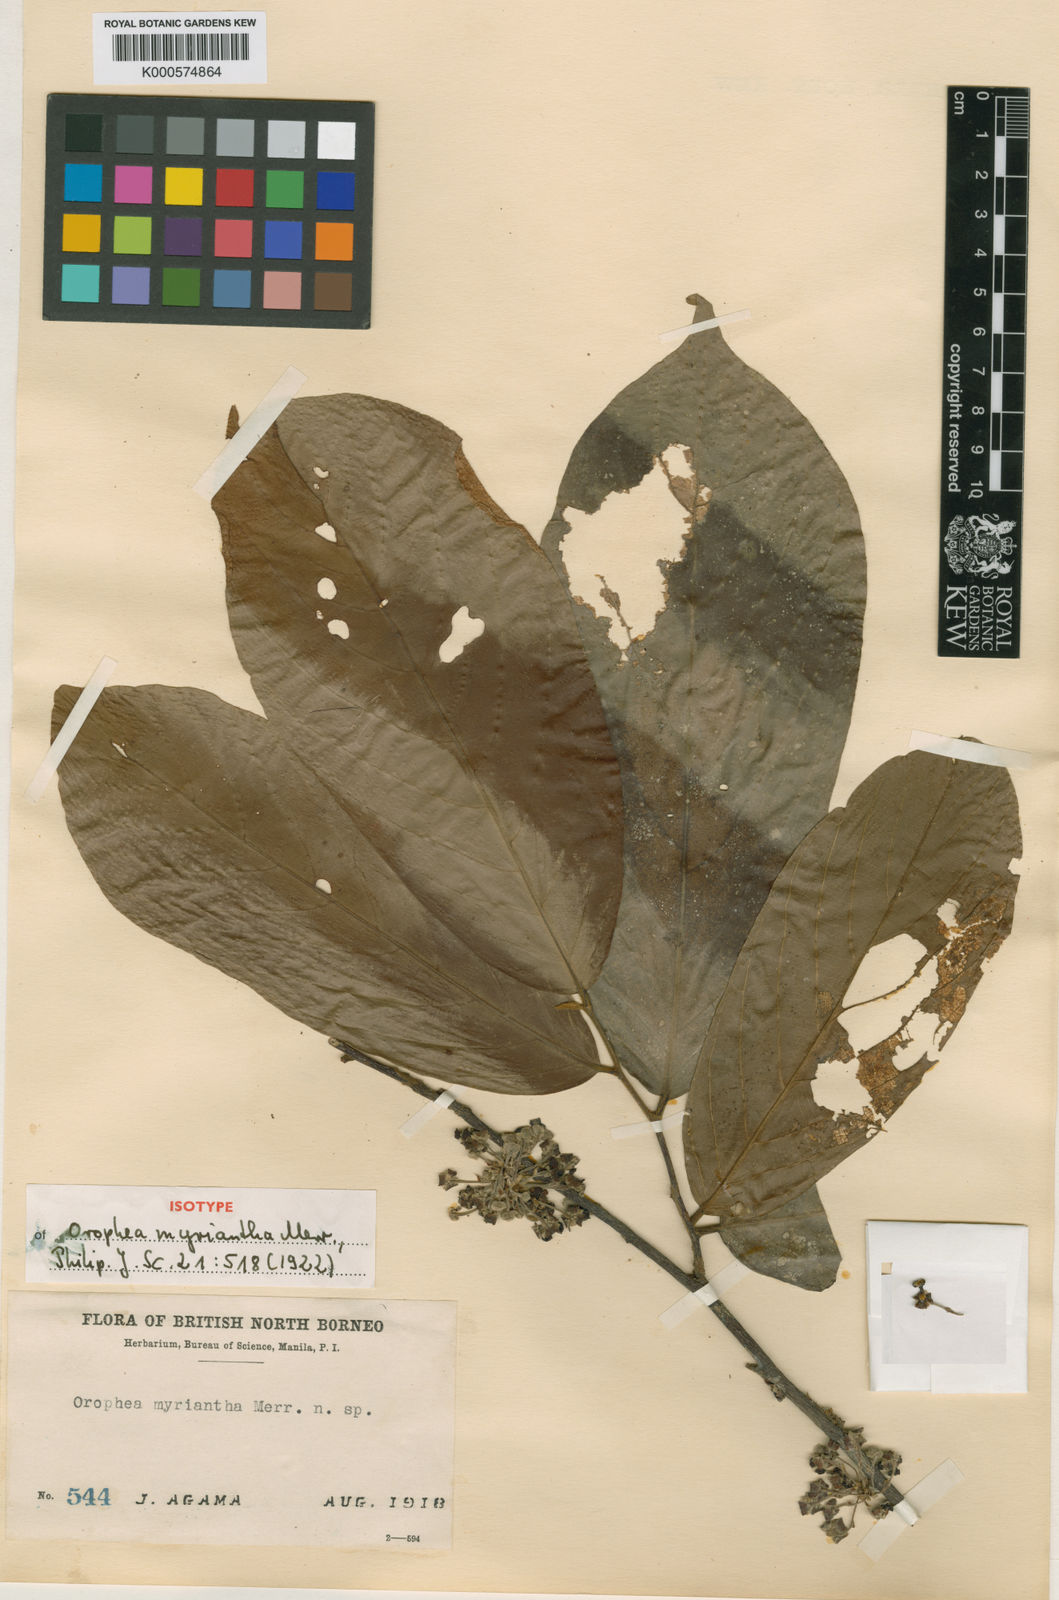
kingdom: Plantae
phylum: Tracheophyta
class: Magnoliopsida
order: Magnoliales
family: Annonaceae
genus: Orophea
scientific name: Orophea myriantha
